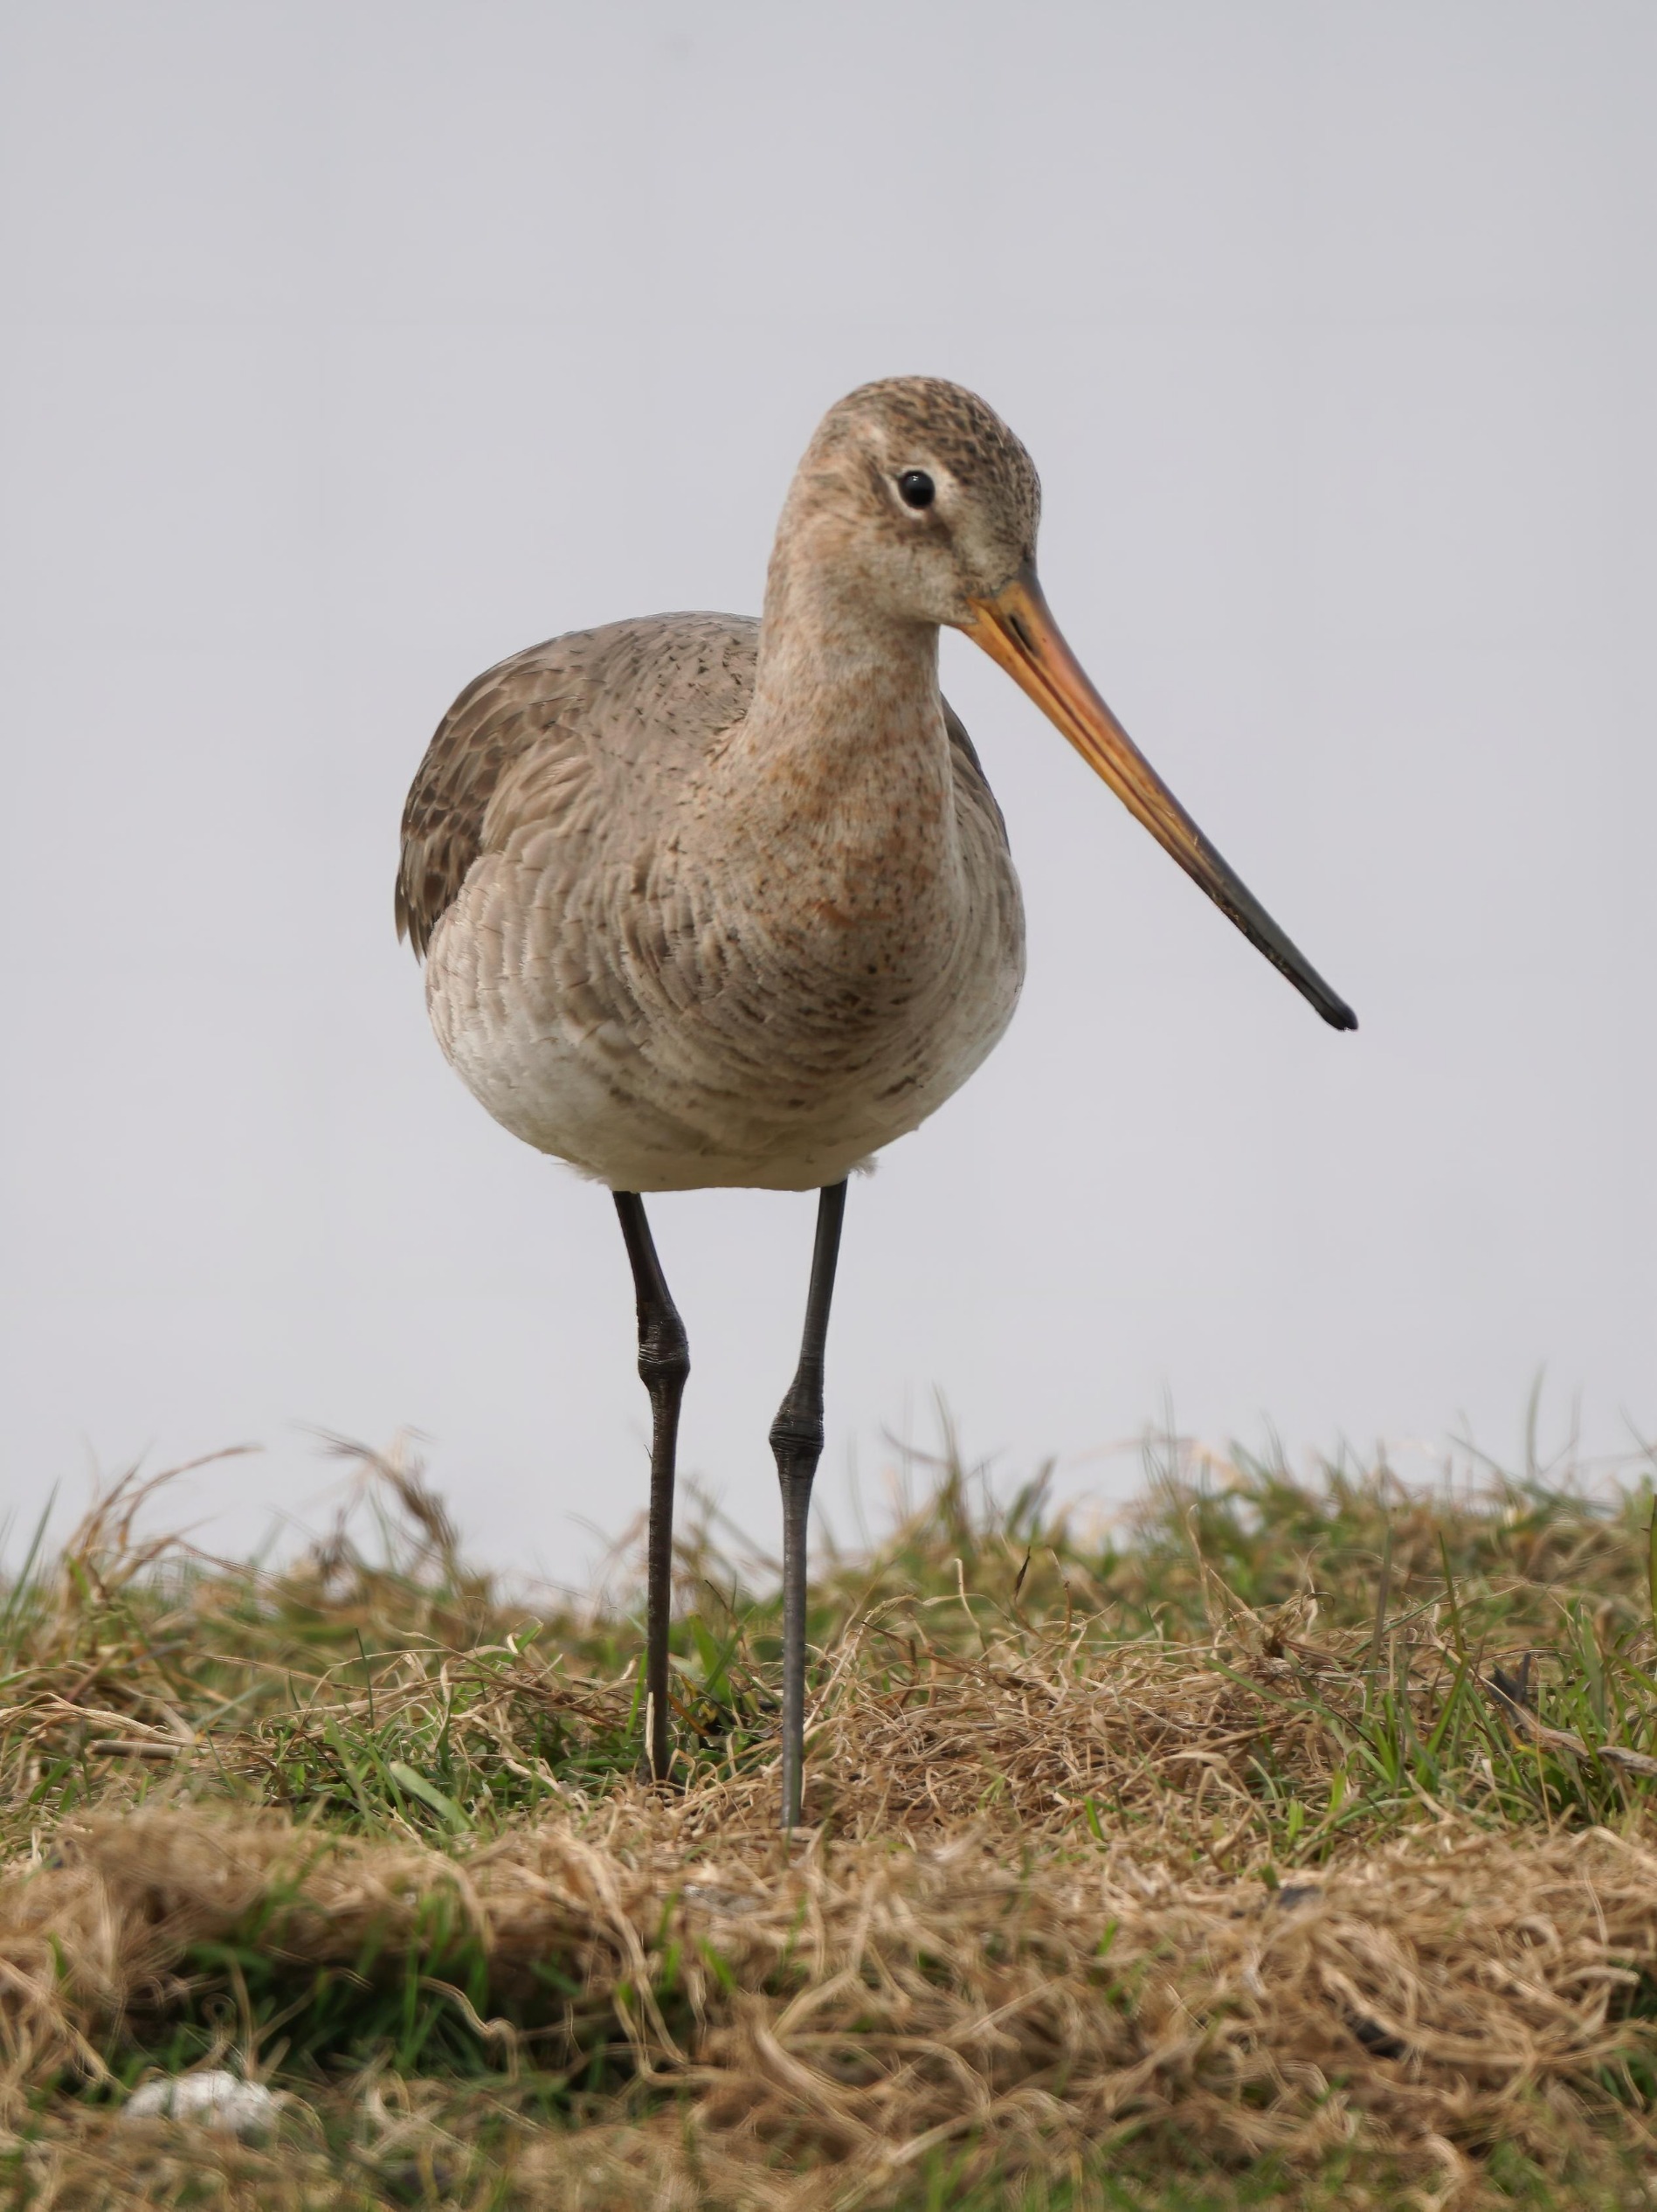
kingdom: Animalia
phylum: Chordata
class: Aves
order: Charadriiformes
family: Scolopacidae
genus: Limosa
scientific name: Limosa limosa
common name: Stor kobbersneppe
